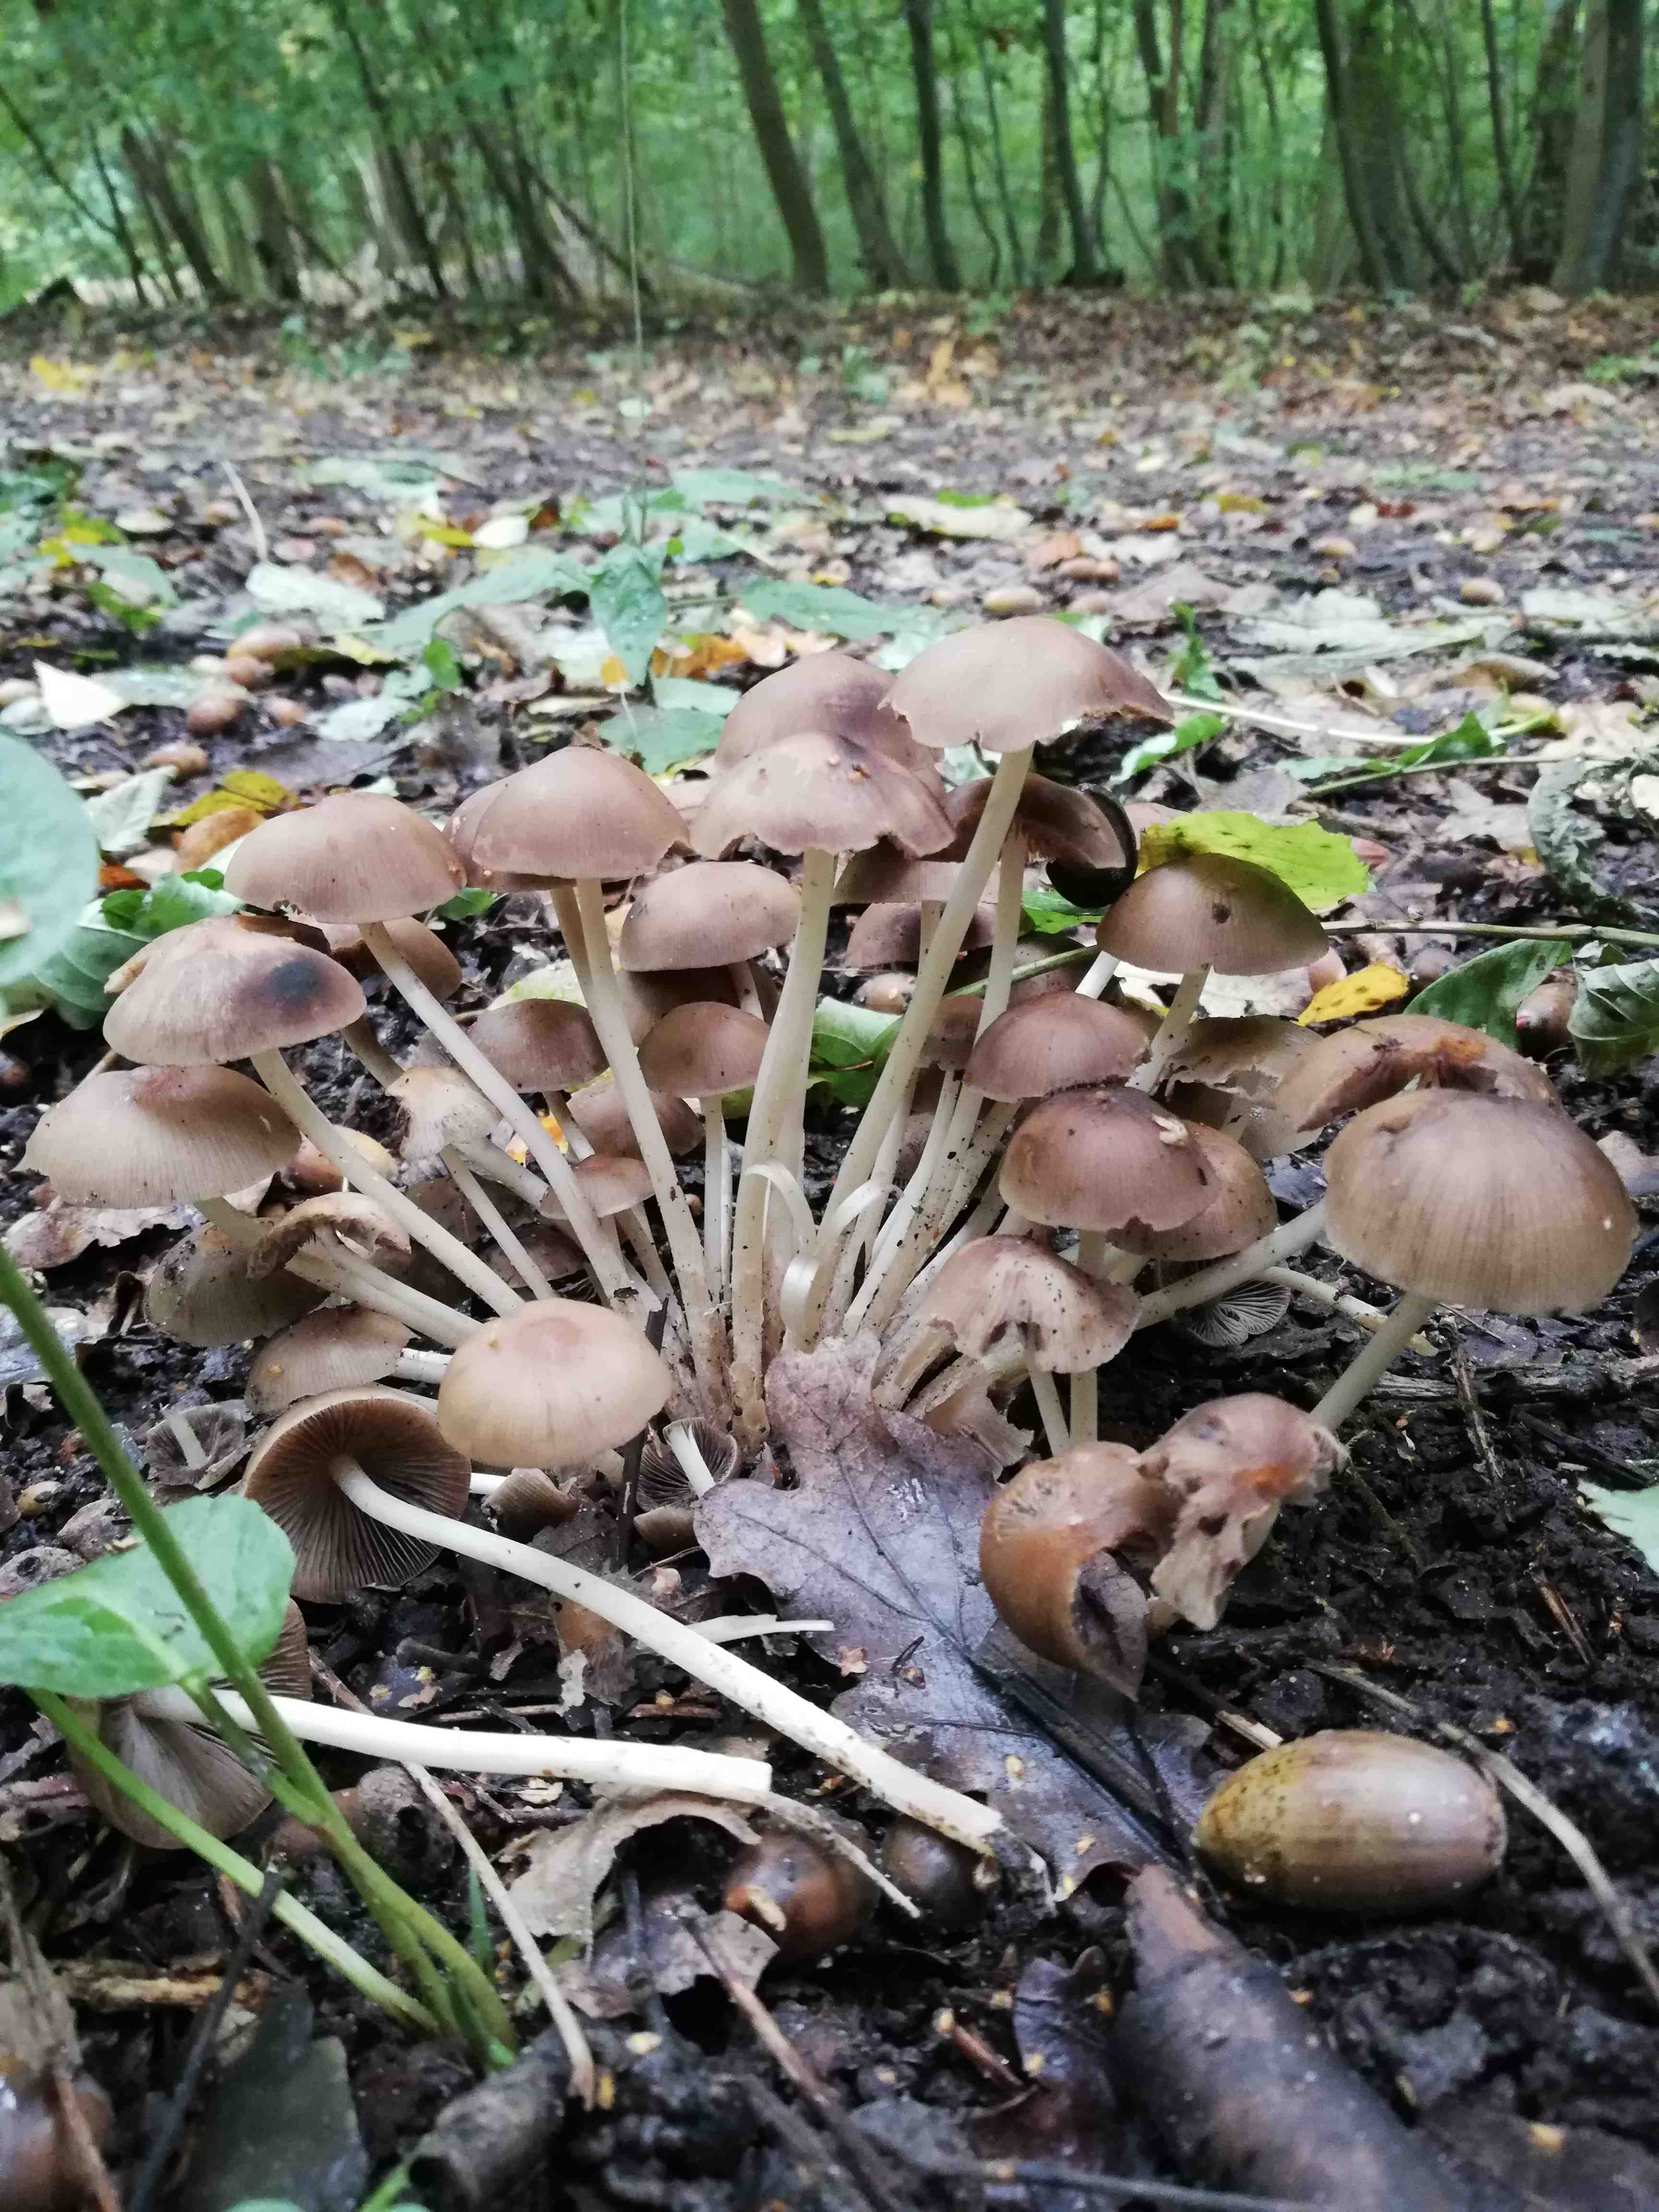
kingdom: Fungi
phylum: Basidiomycota
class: Agaricomycetes
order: Agaricales
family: Psathyrellaceae
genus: Britzelmayria
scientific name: Britzelmayria multipedata
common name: knippe-mørkhat
